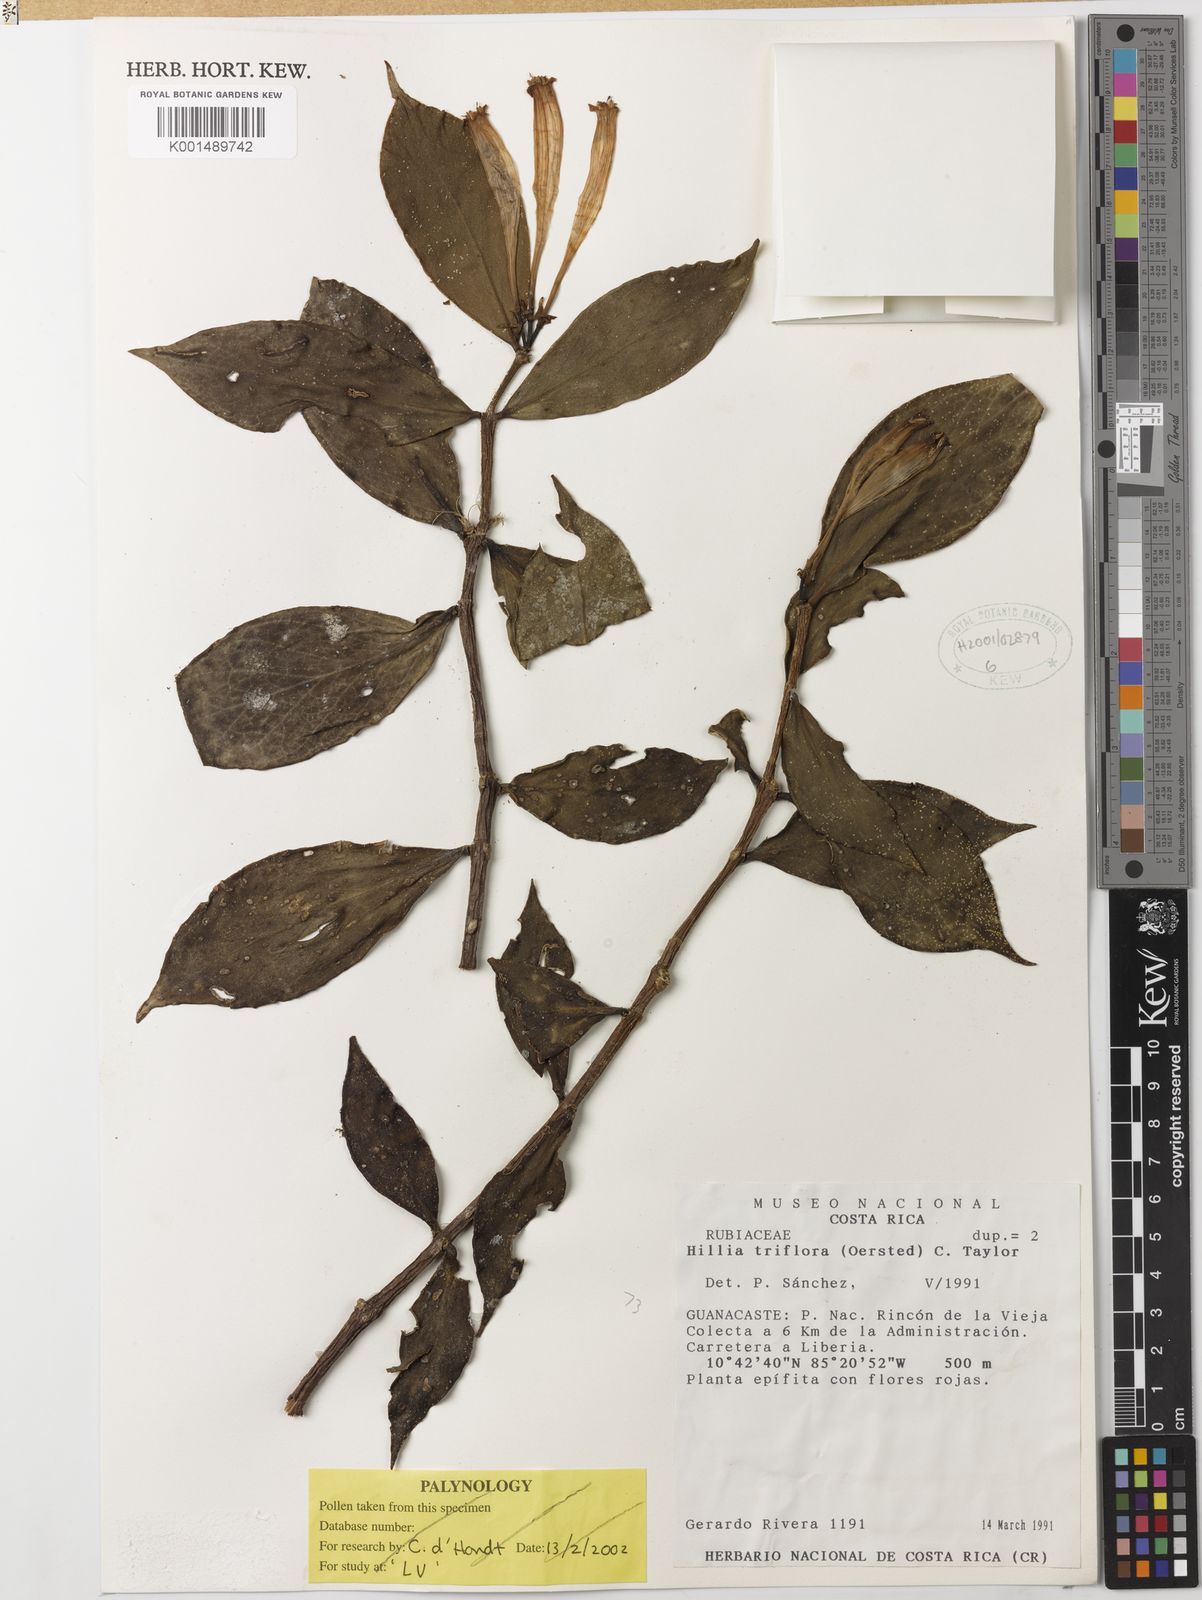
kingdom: Plantae
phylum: Tracheophyta
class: Magnoliopsida
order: Gentianales
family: Rubiaceae
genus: Hillia
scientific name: Hillia triflora
